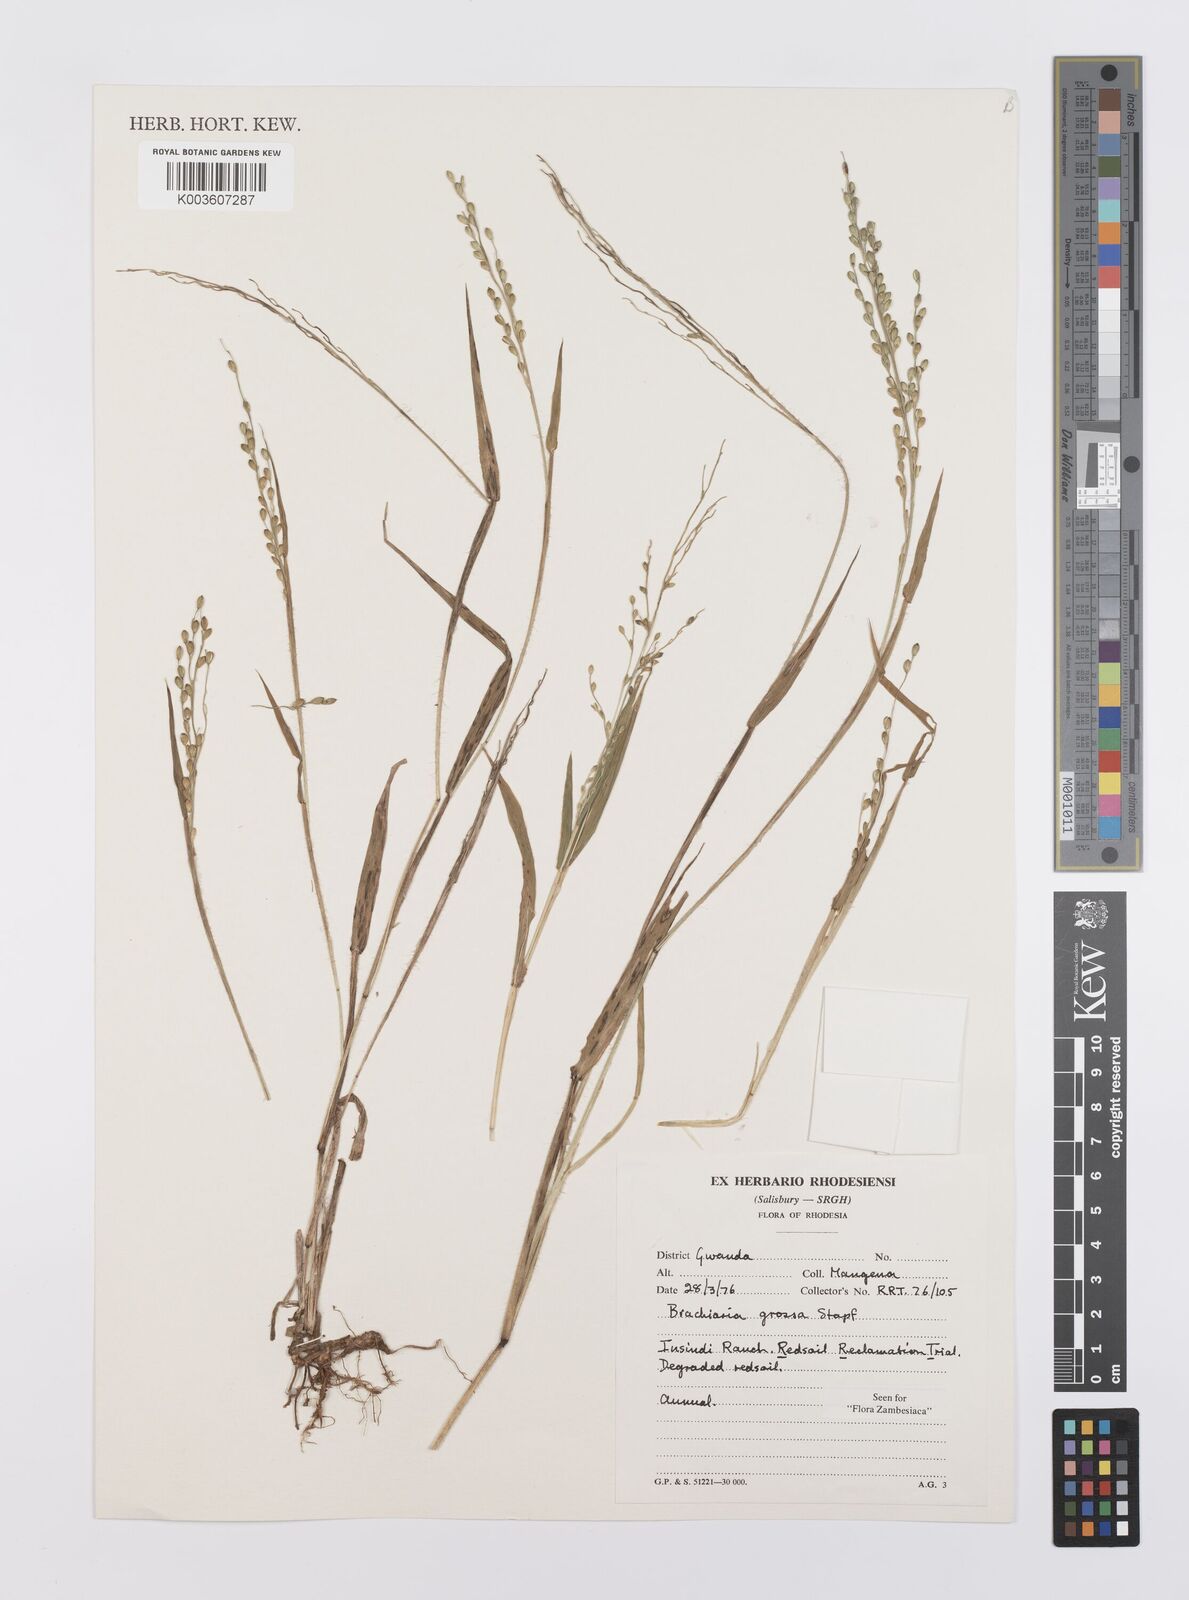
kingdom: Plantae
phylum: Tracheophyta
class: Liliopsida
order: Poales
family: Poaceae
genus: Urochloa
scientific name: Urochloa Brachiaria grossa
